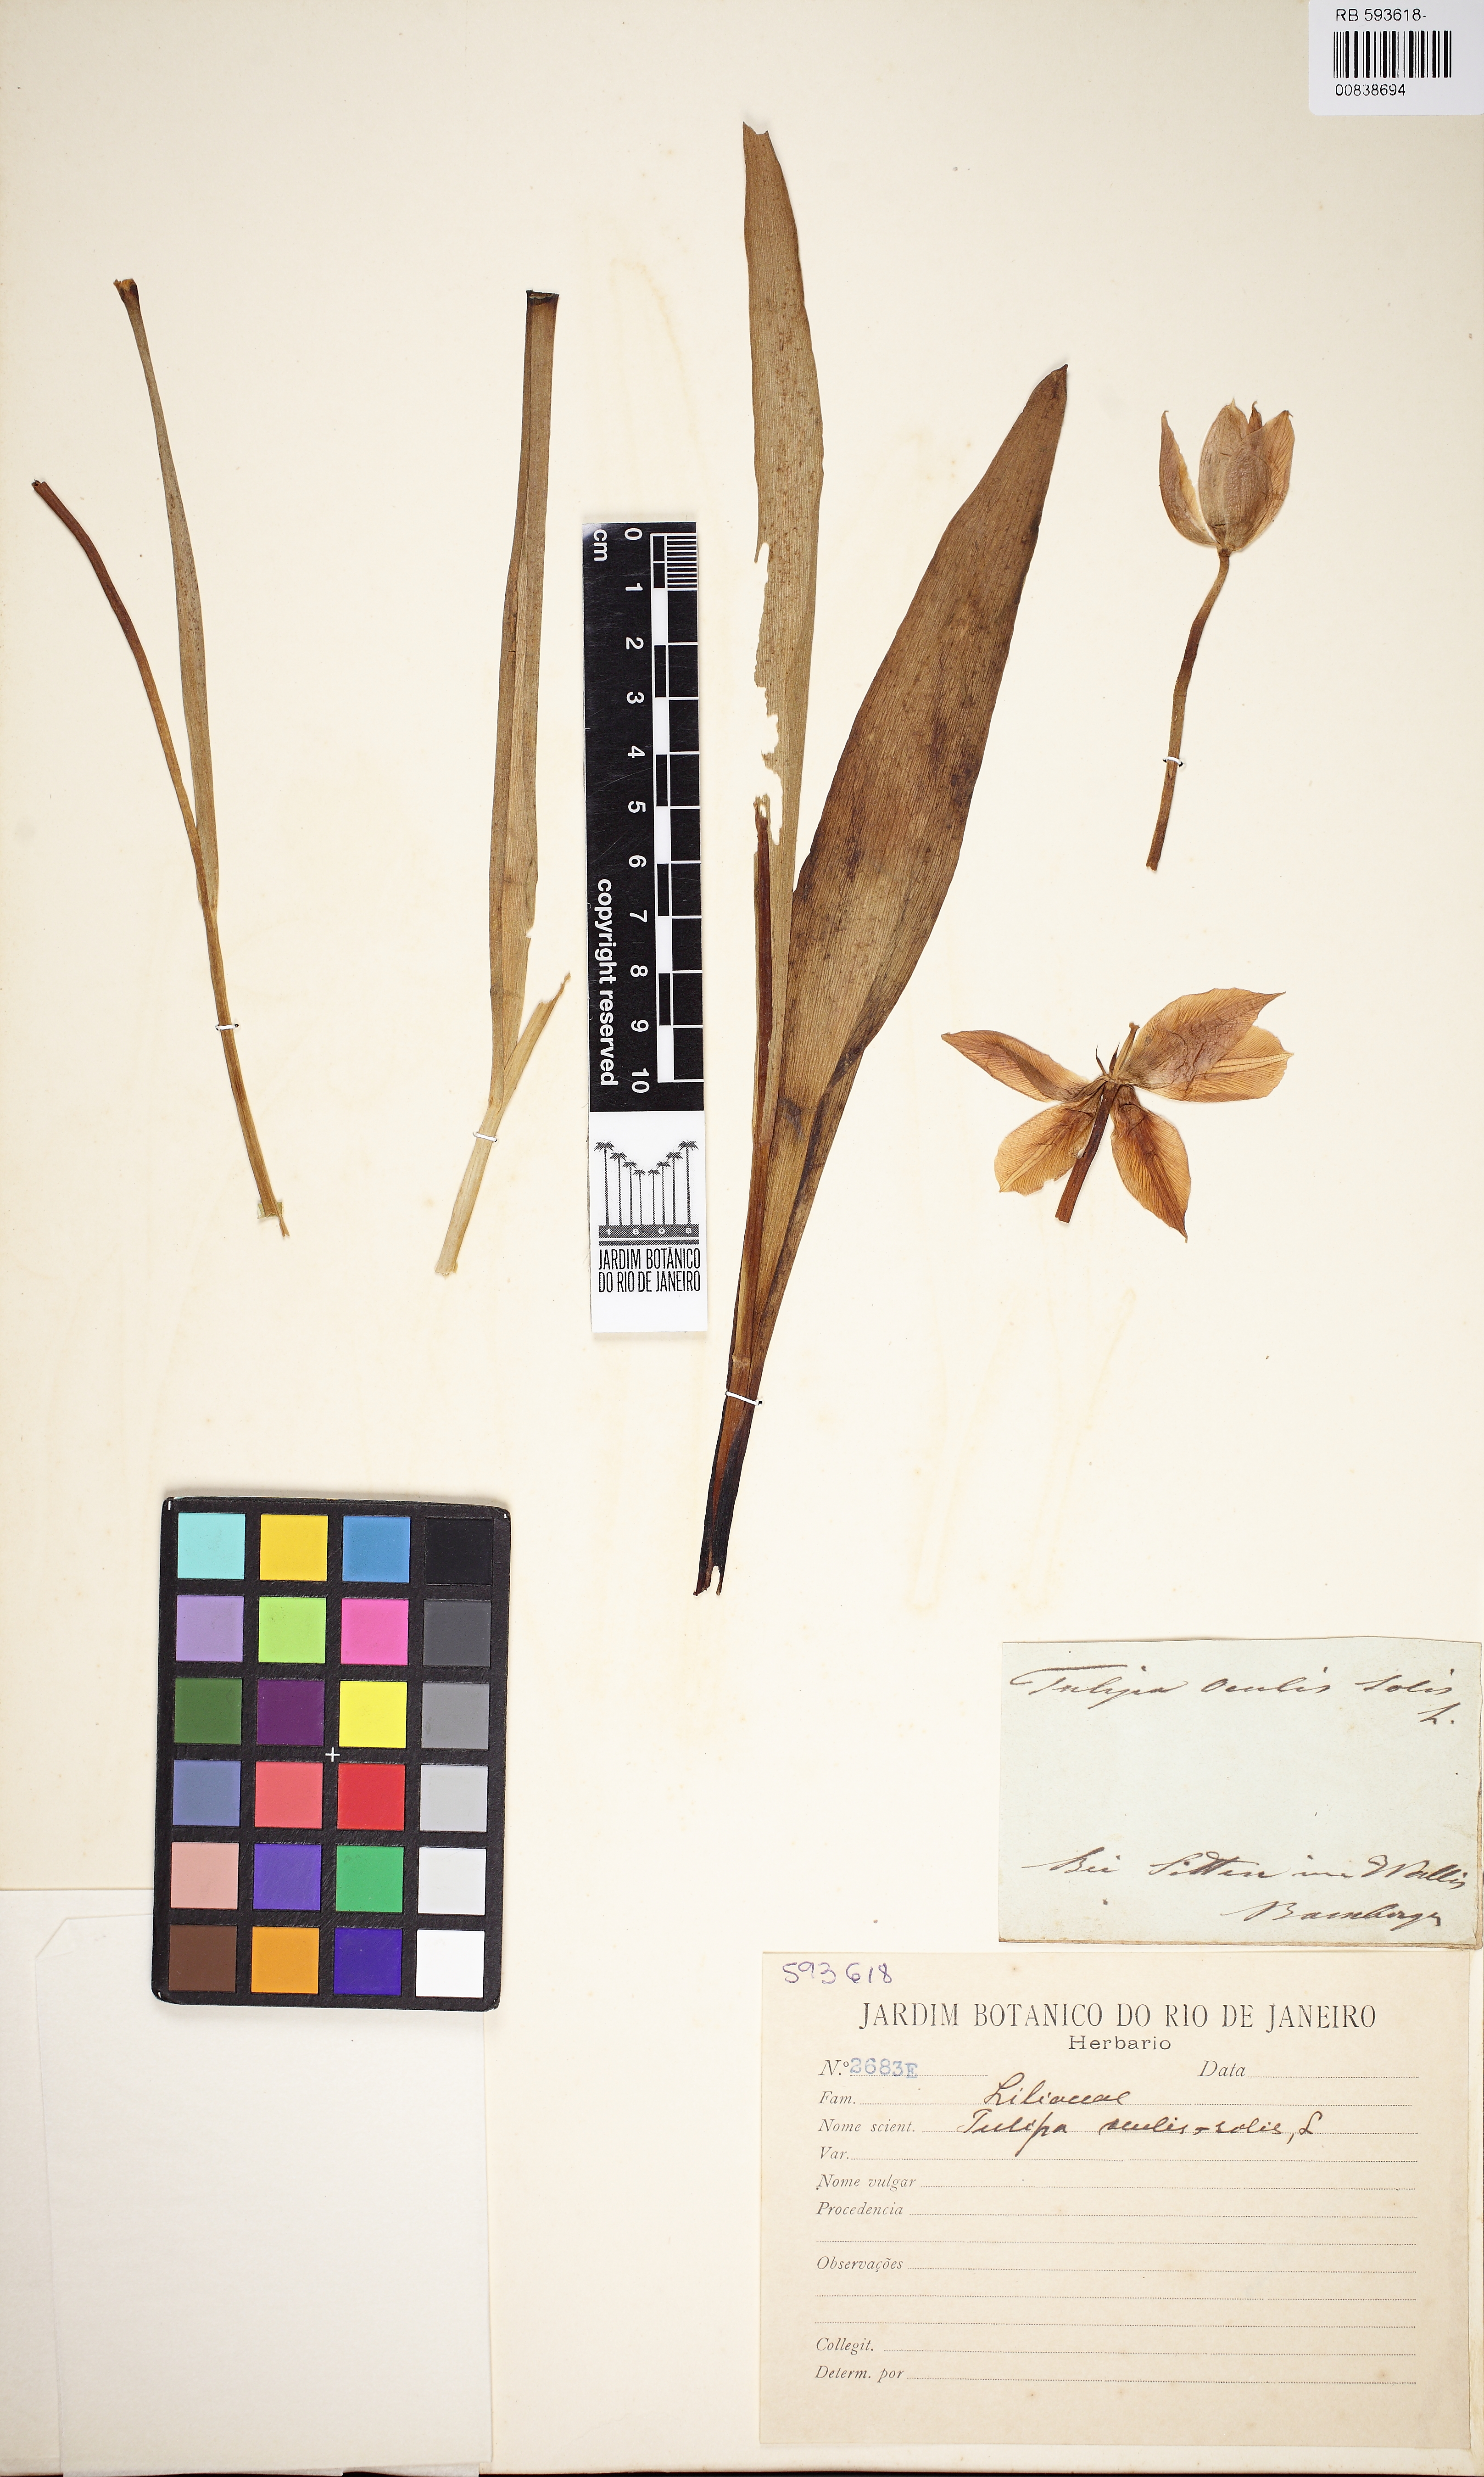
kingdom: Plantae
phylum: Tracheophyta
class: Liliopsida
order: Liliales
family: Liliaceae
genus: Tulipa
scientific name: Tulipa agenensis
